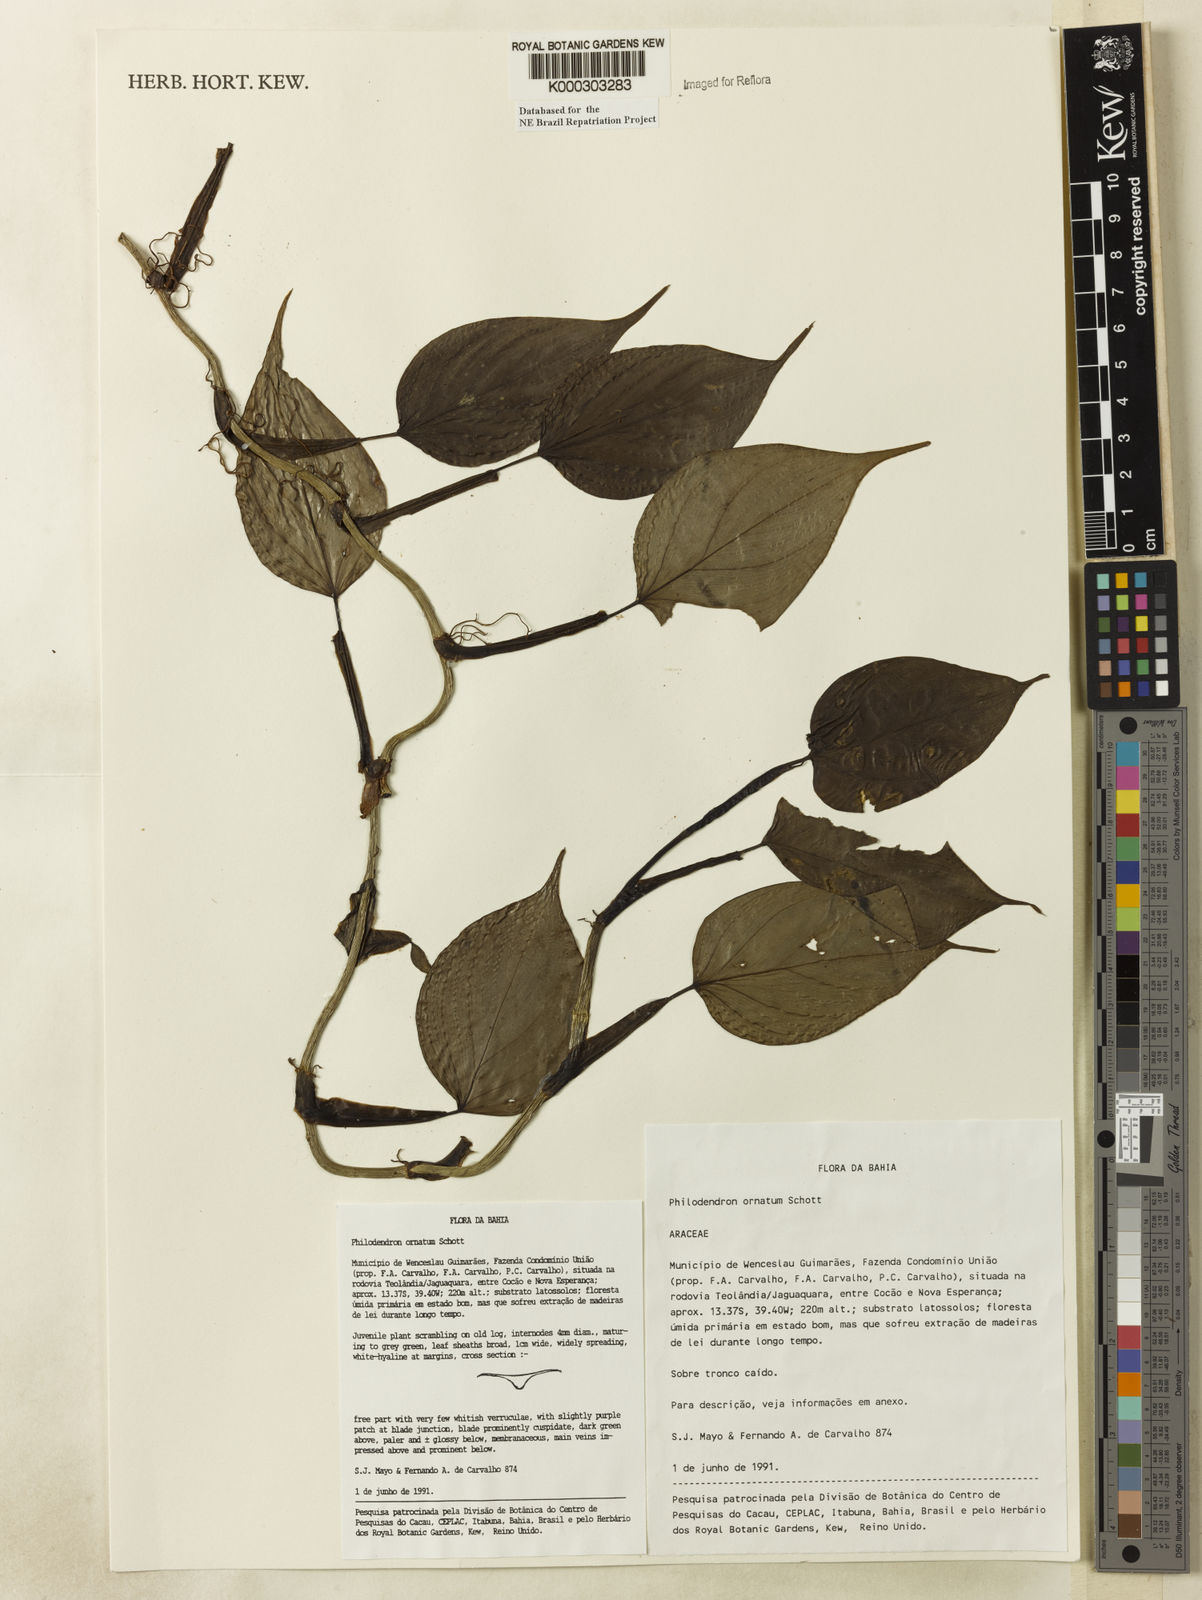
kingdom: Plantae
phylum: Tracheophyta
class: Liliopsida
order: Alismatales
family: Araceae
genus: Philodendron
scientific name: Philodendron ornatum
